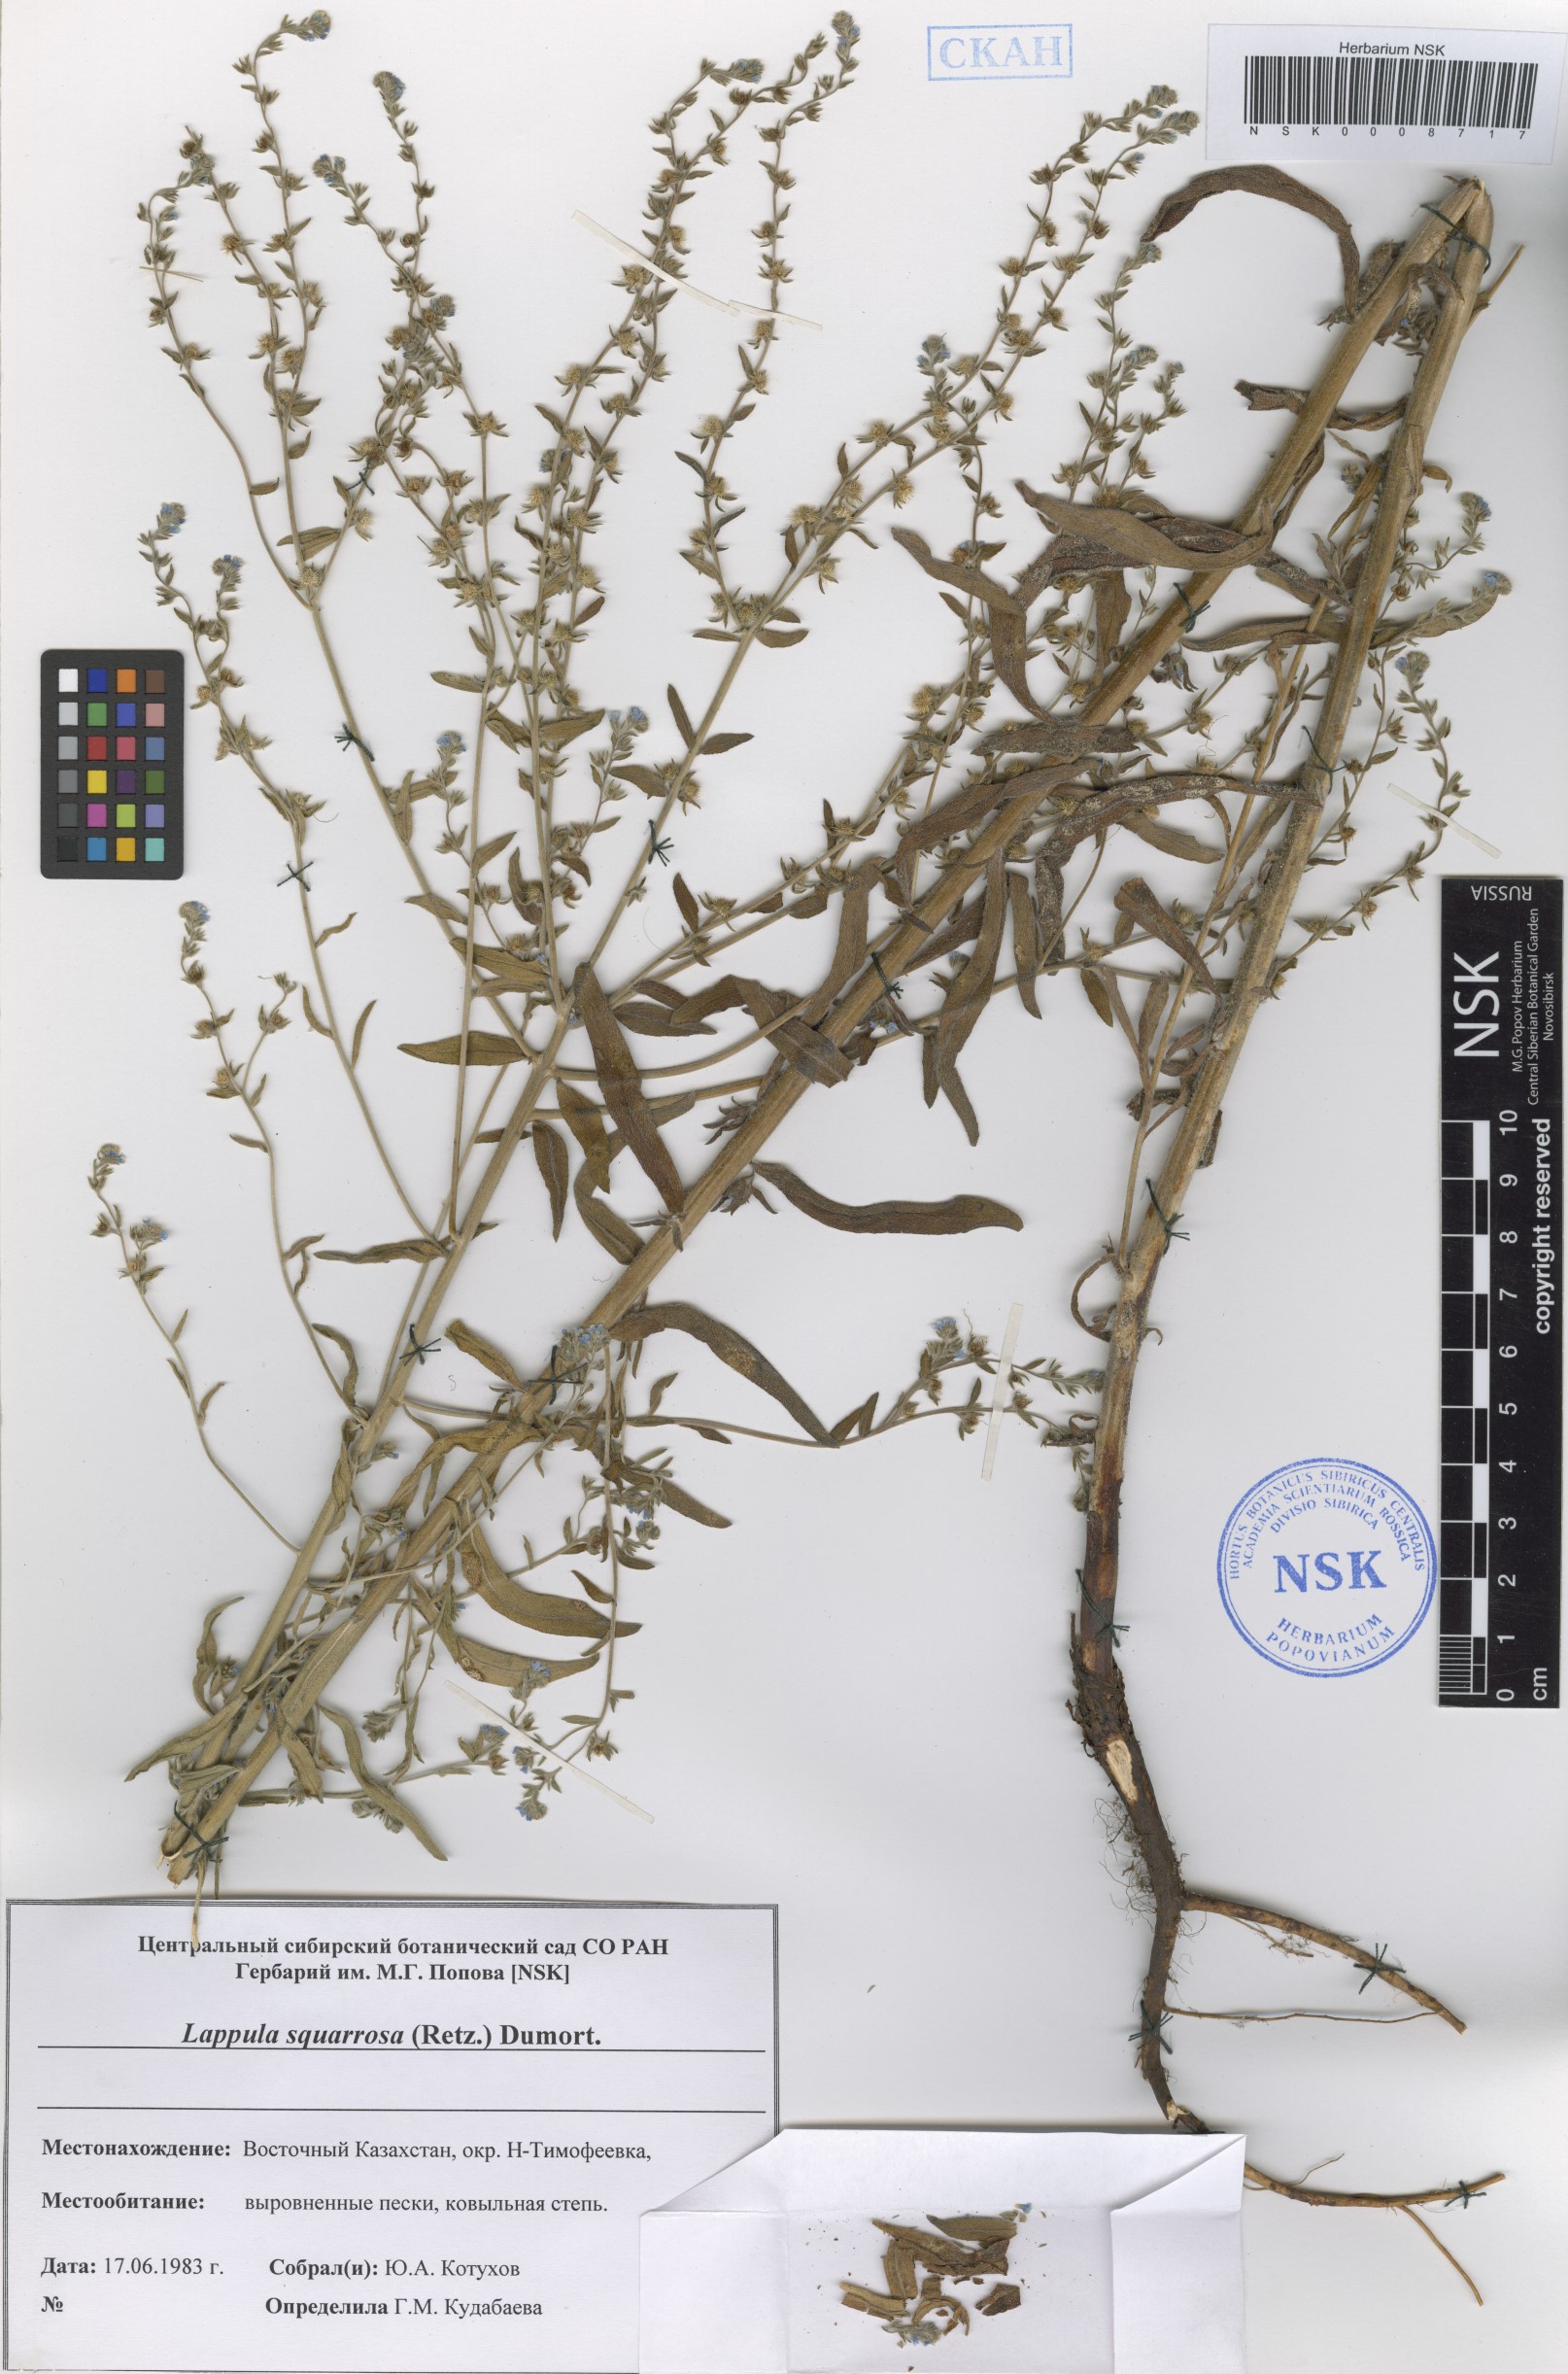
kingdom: Plantae
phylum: Tracheophyta
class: Magnoliopsida
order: Boraginales
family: Boraginaceae
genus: Lappula
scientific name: Lappula squarrosa
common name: European stickseed
